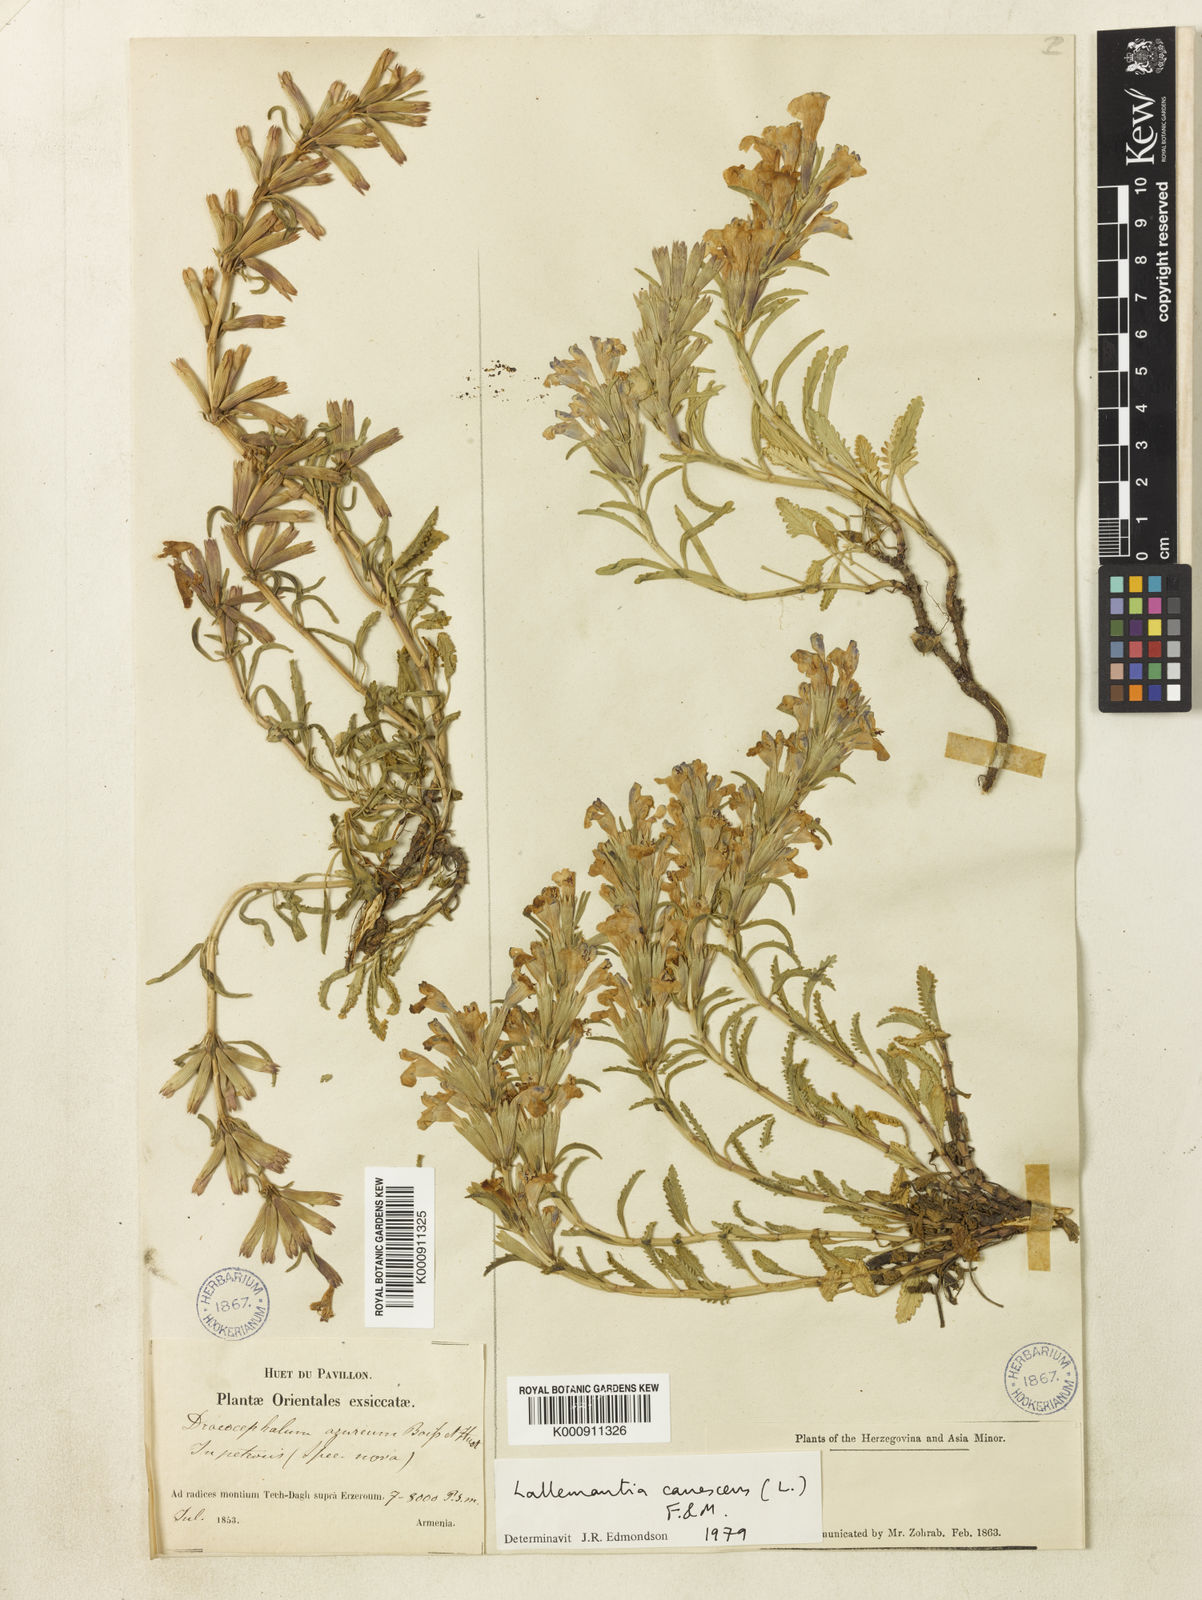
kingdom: Plantae
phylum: Tracheophyta
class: Magnoliopsida
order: Lamiales
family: Lamiaceae
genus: Lallemantia
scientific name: Lallemantia canescens
